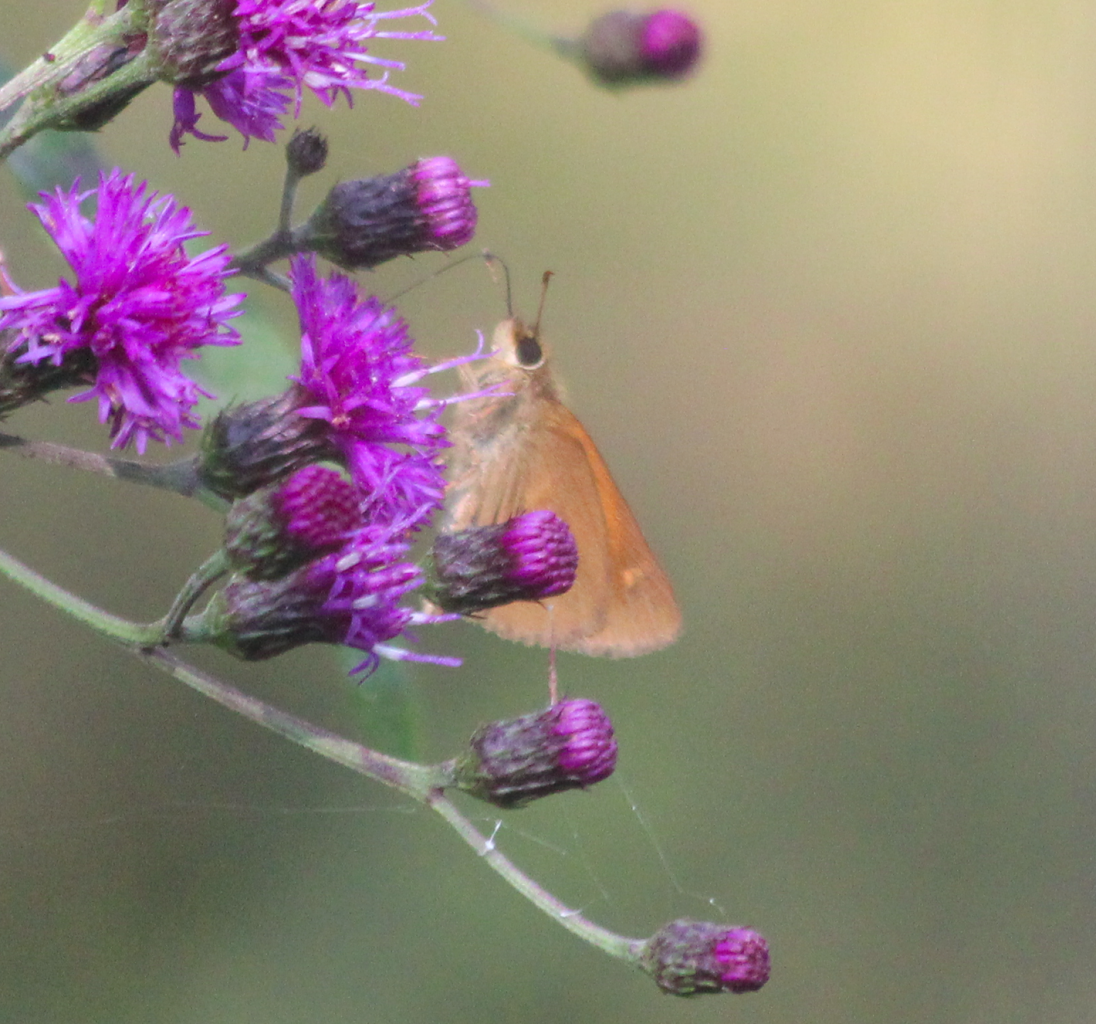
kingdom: Animalia
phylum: Arthropoda
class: Insecta
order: Lepidoptera
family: Hesperiidae
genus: Polites
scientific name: Polites coras
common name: Peck's Skipper
